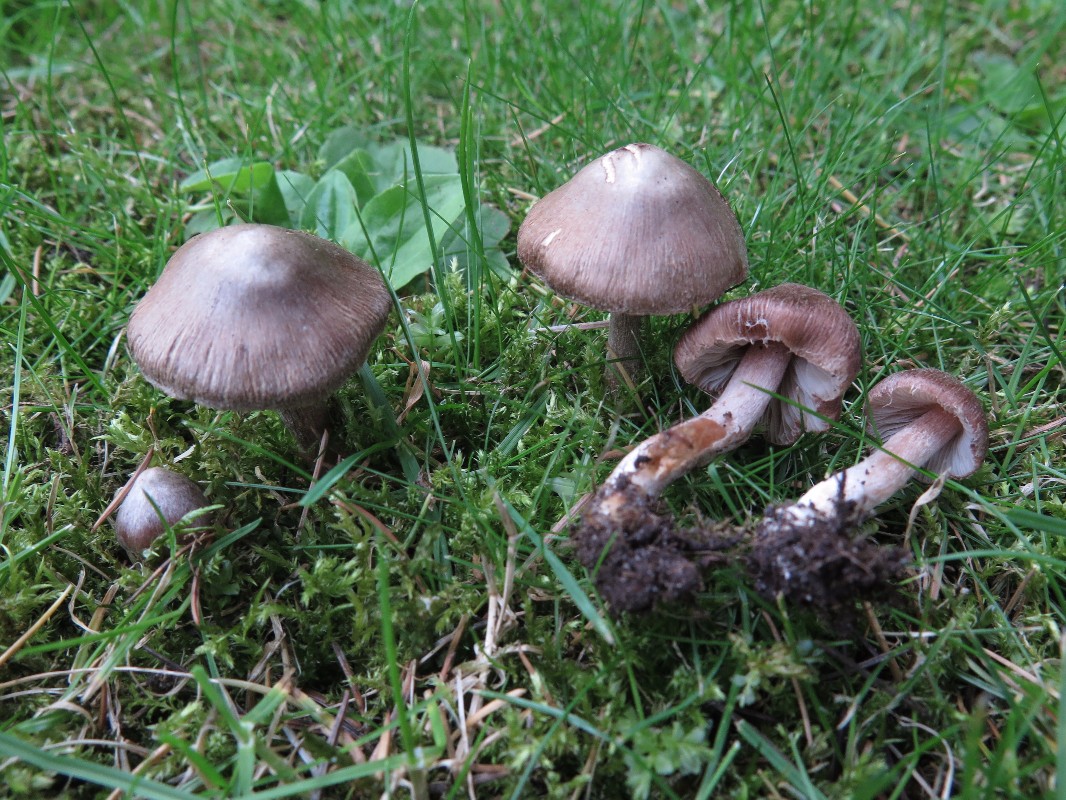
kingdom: Fungi
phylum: Basidiomycota
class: Agaricomycetes
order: Agaricales
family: Inocybaceae
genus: Inosperma
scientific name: Inosperma adaequatum
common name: vinrød trævlhat
